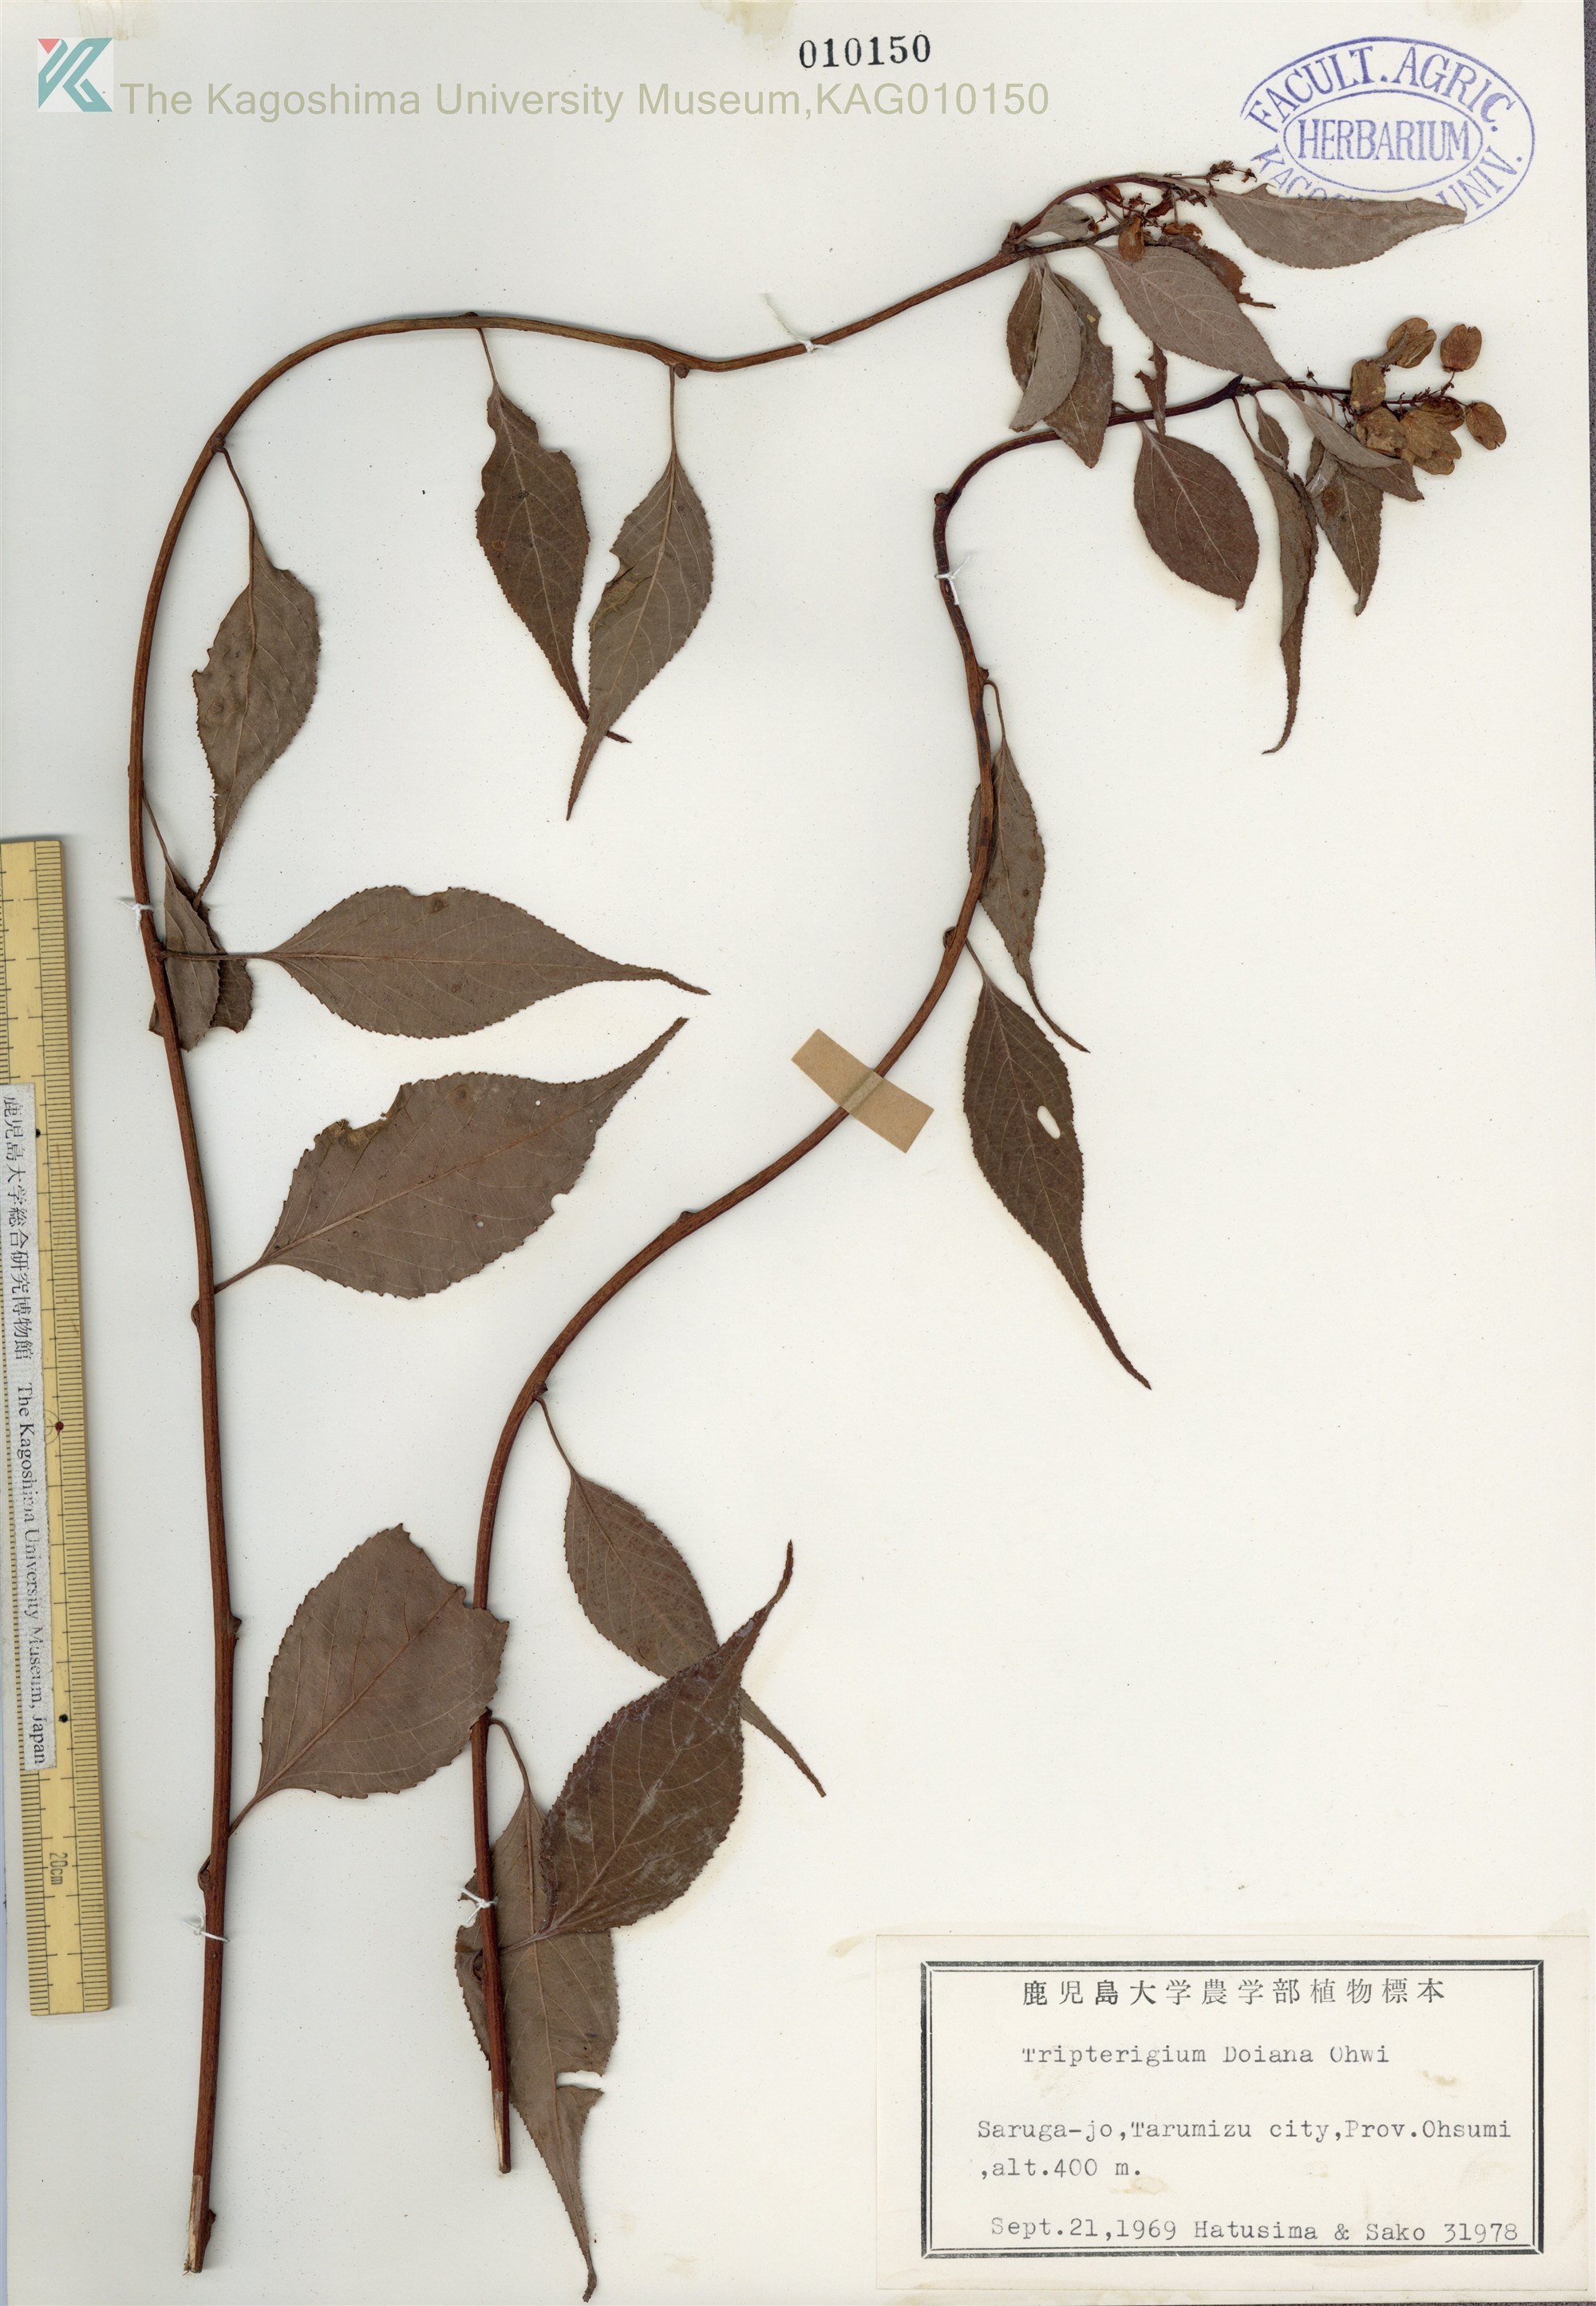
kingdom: Plantae
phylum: Tracheophyta
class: Magnoliopsida
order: Celastrales
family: Celastraceae
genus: Tripterygium
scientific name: Tripterygium doianum
